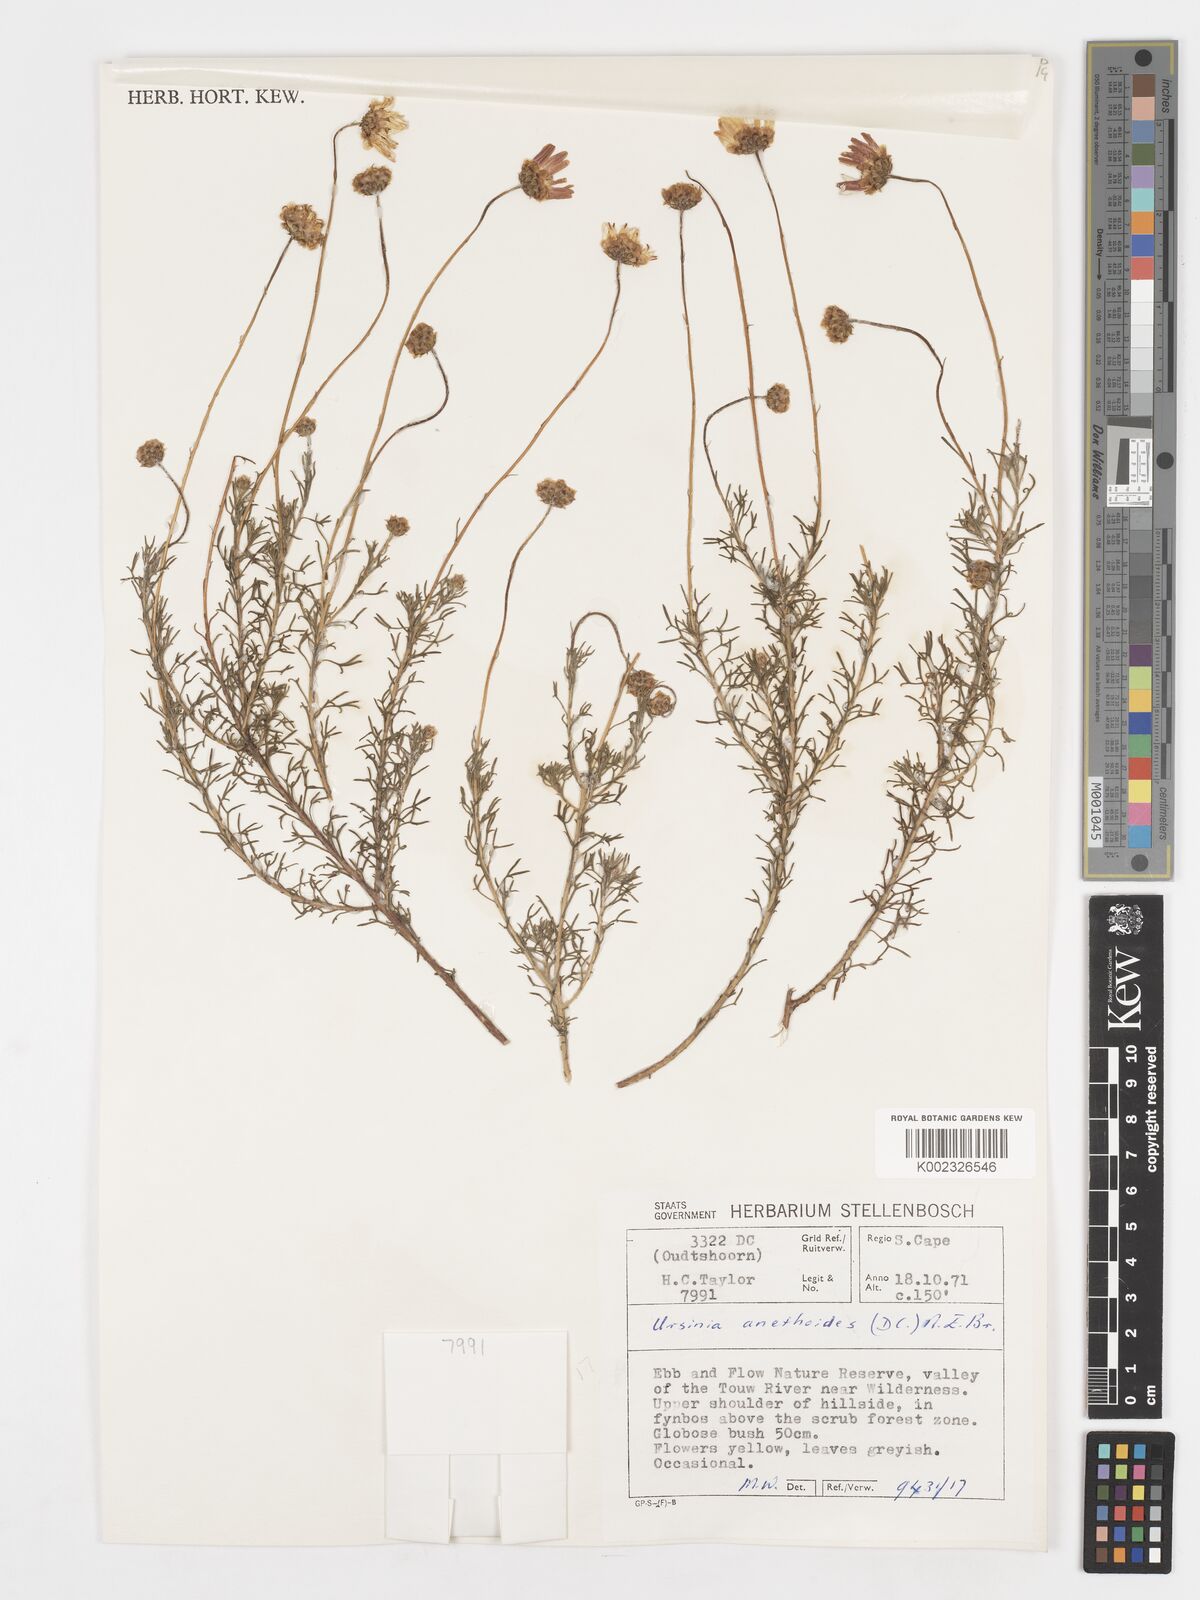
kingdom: Plantae
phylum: Tracheophyta
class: Magnoliopsida
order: Asterales
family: Asteraceae
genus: Ursinia
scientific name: Ursinia anethoides
